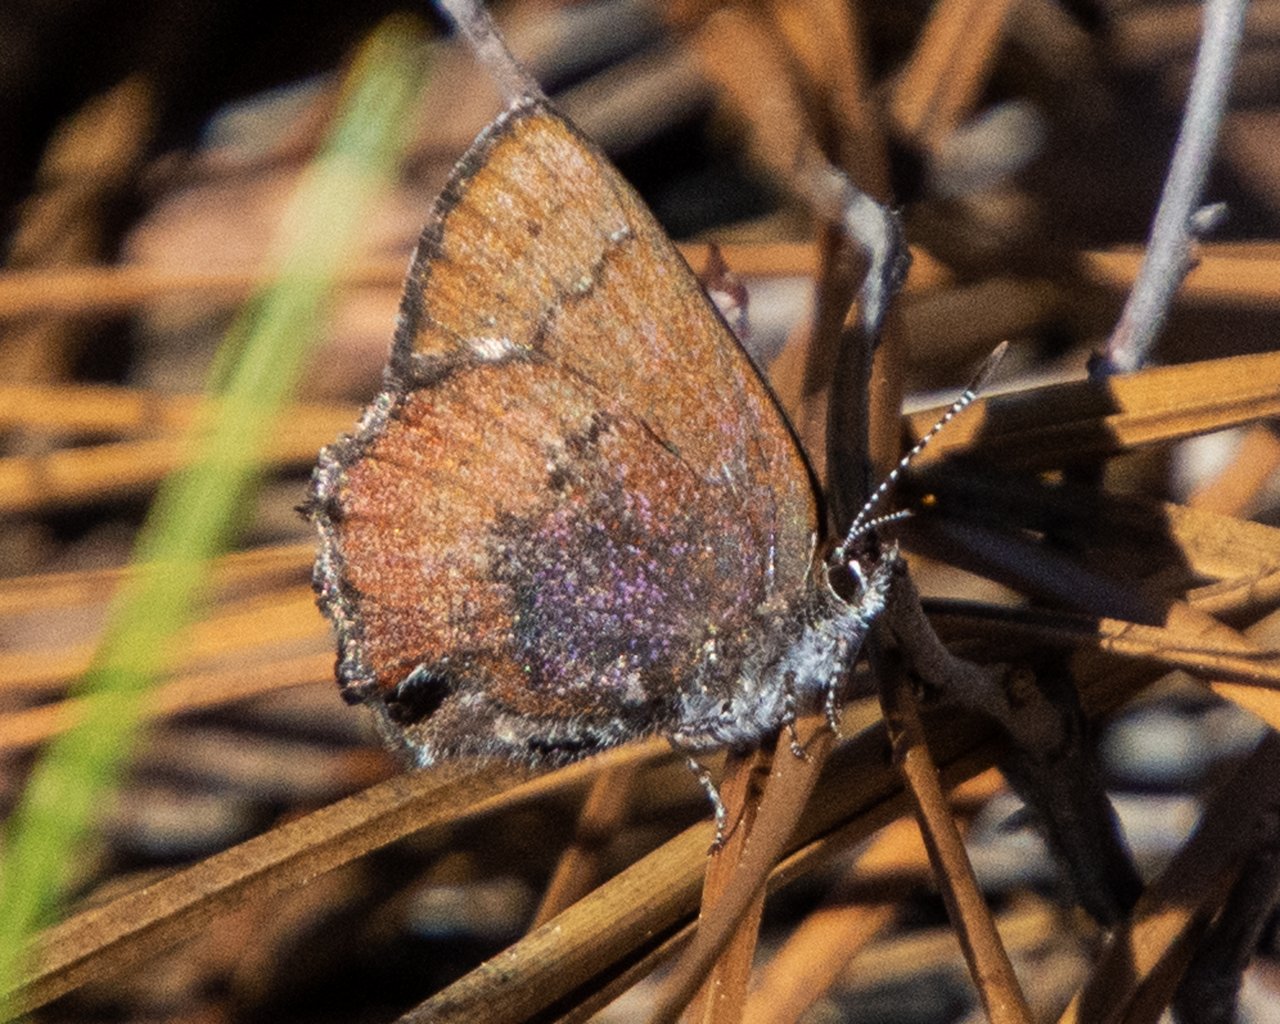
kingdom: Animalia
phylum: Arthropoda
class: Insecta
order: Lepidoptera
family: Lycaenidae
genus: Incisalia
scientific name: Incisalia irioides
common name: Brown Elfin
